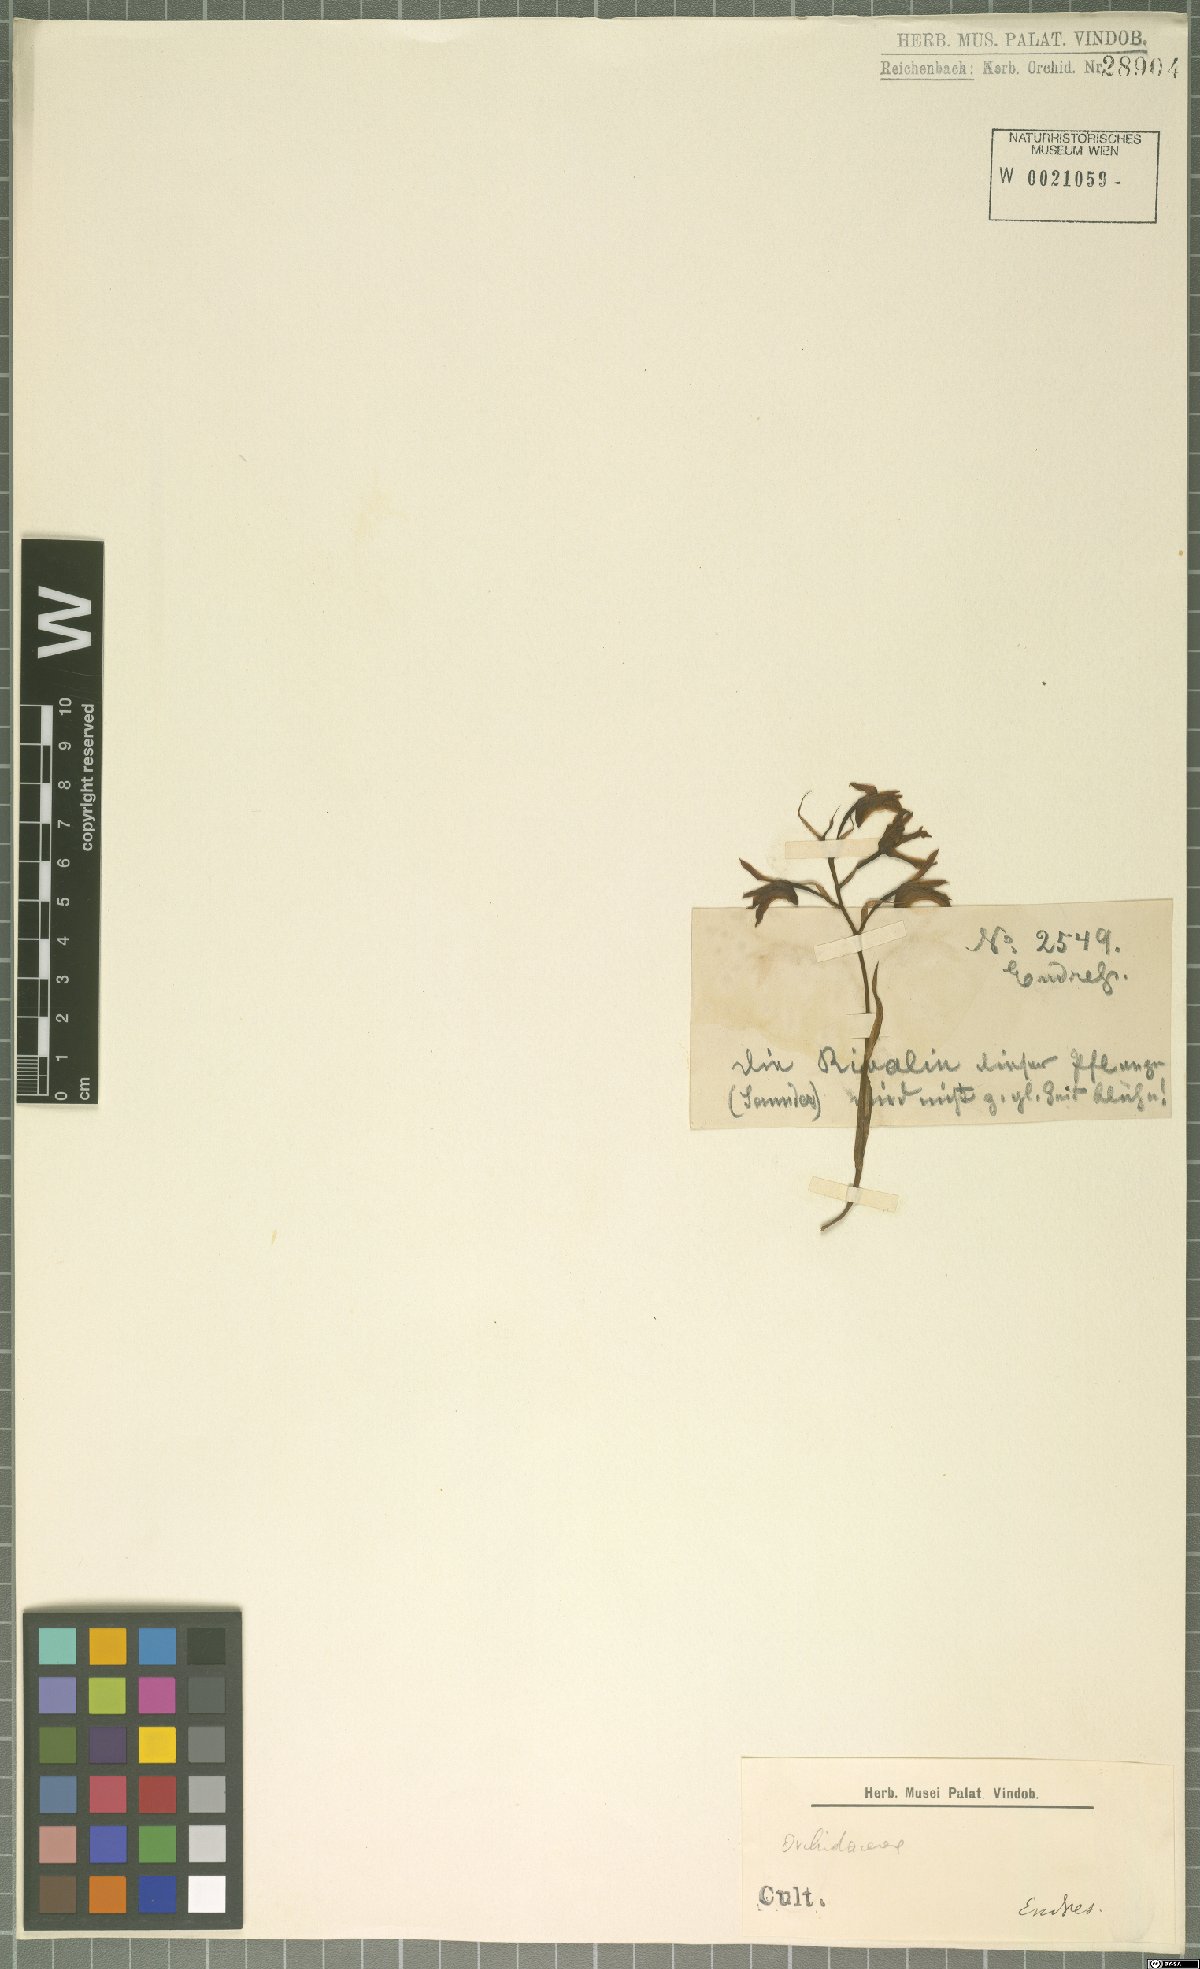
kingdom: Plantae
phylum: Tracheophyta
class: Liliopsida
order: Asparagales
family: Orchidaceae
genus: Xylobium
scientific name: Xylobium
